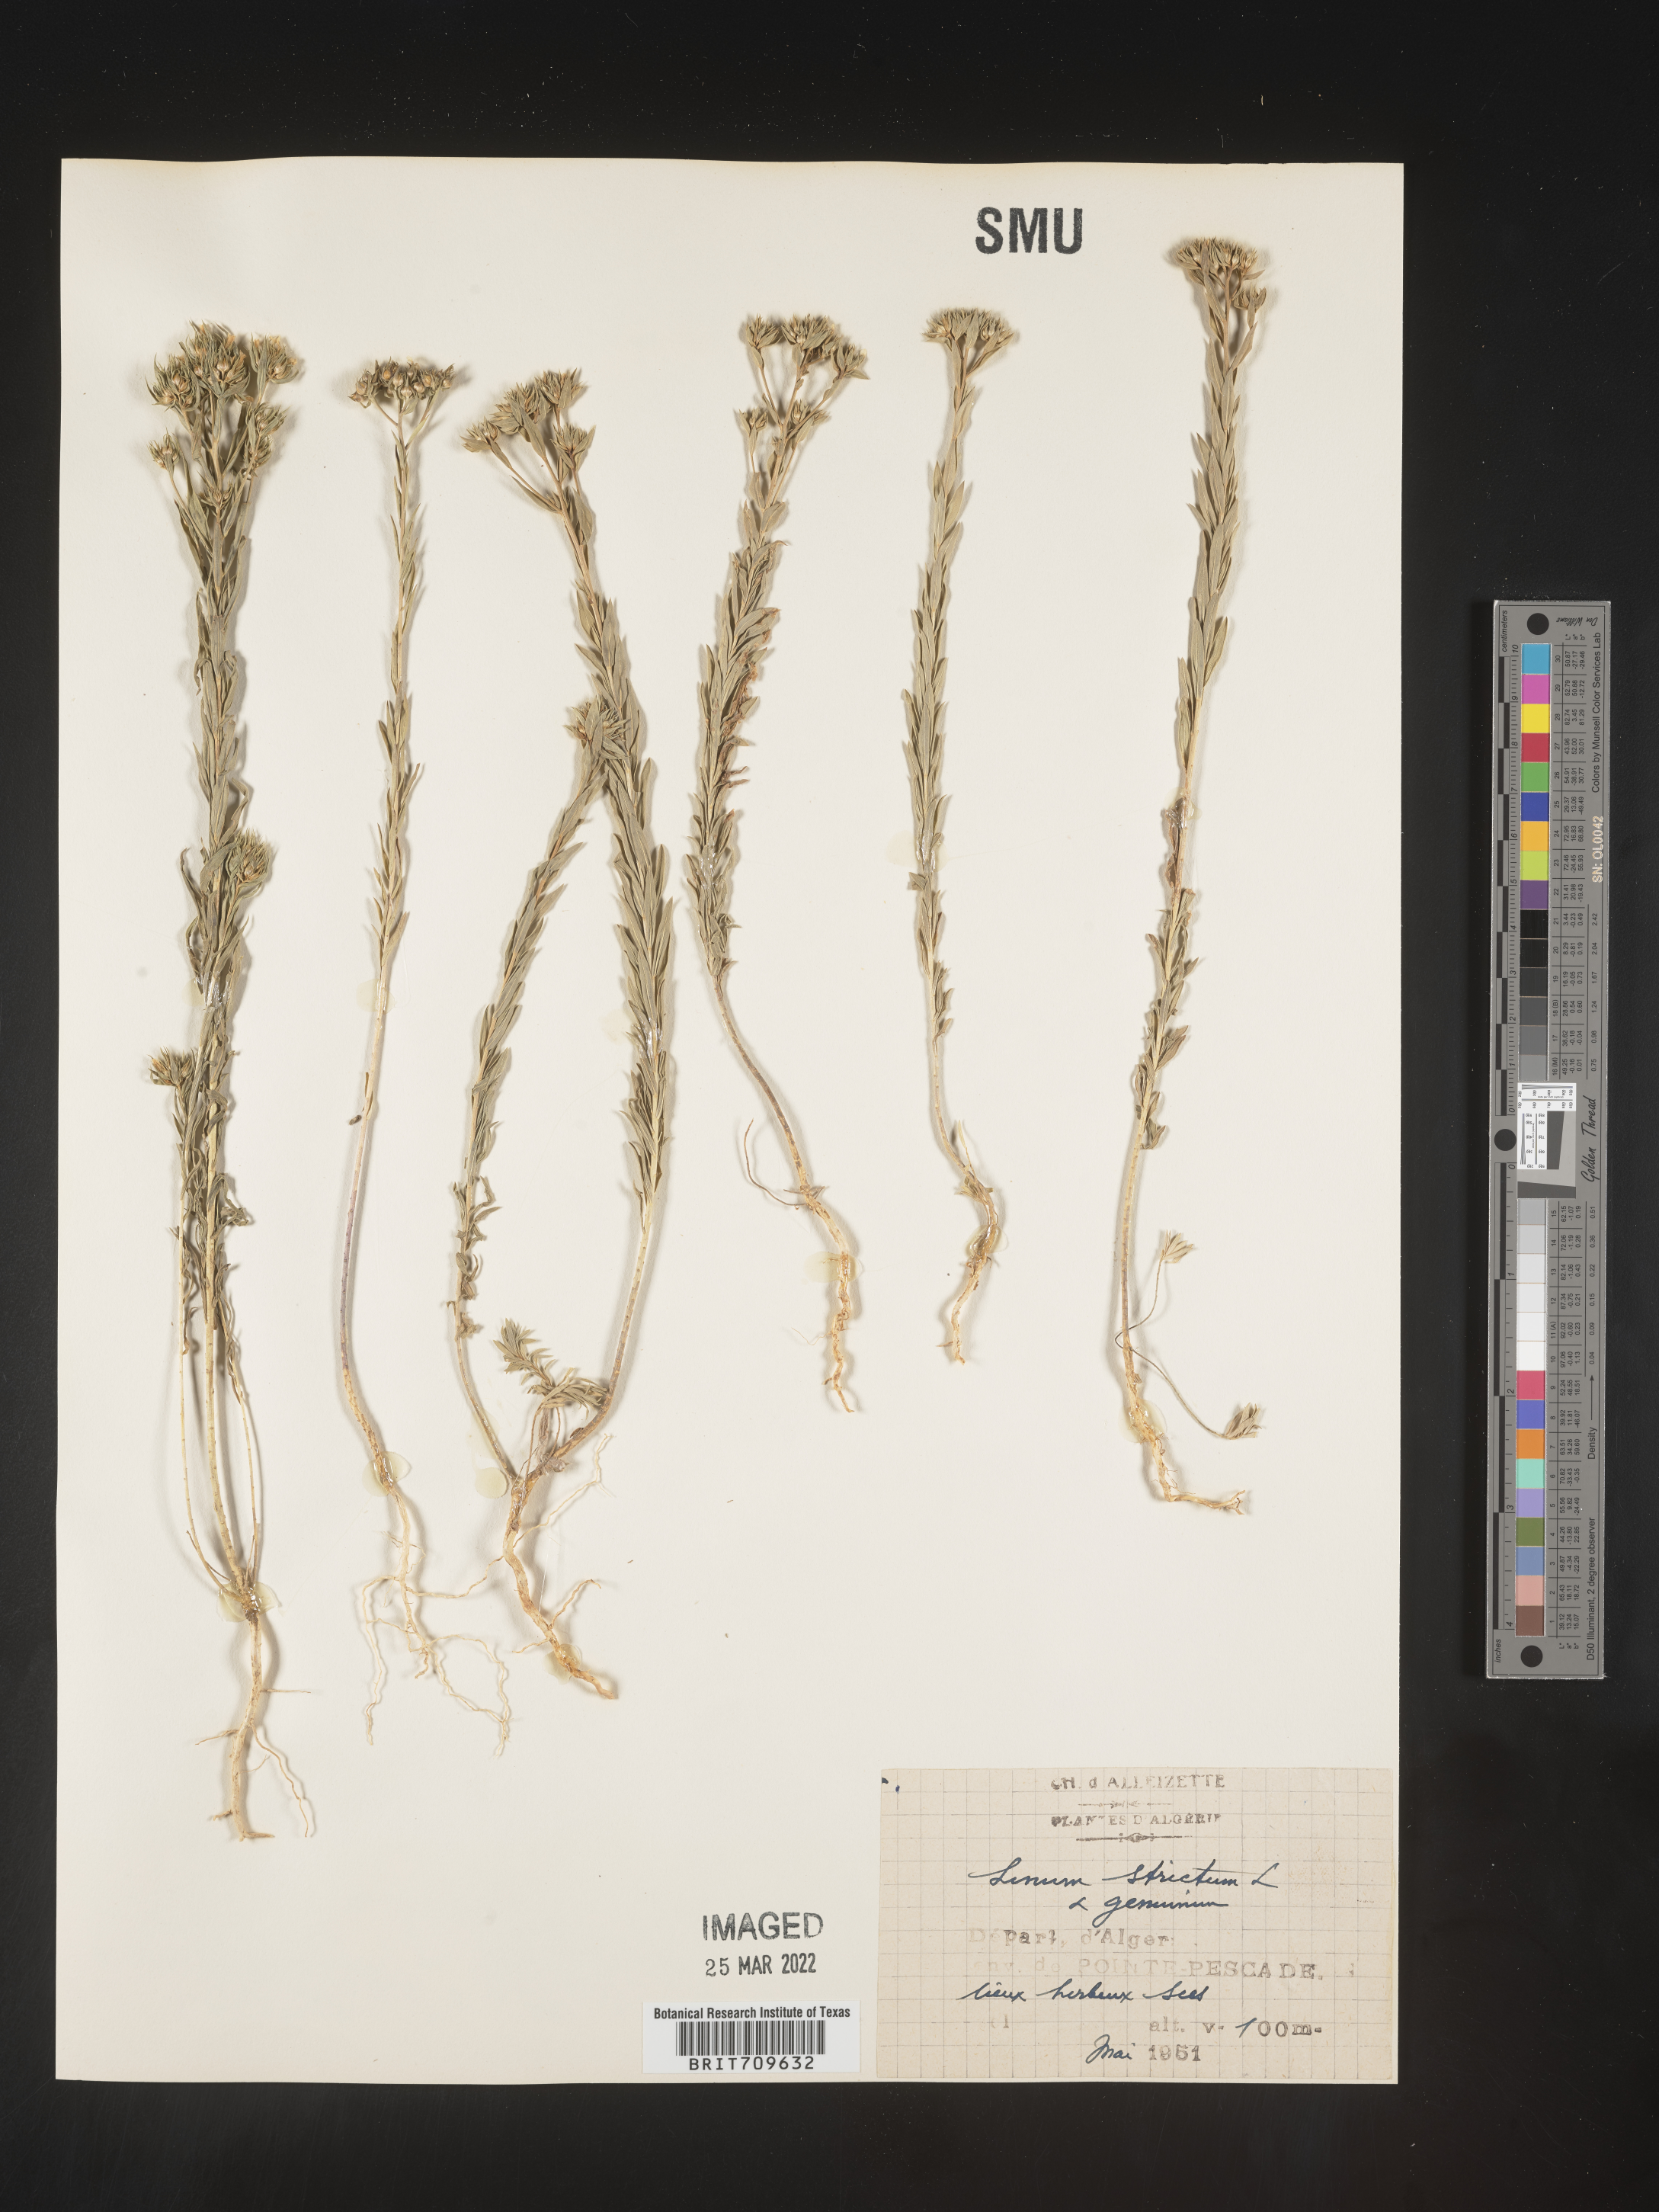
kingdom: Plantae
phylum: Tracheophyta
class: Magnoliopsida
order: Malpighiales
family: Linaceae
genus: Linum
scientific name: Linum
